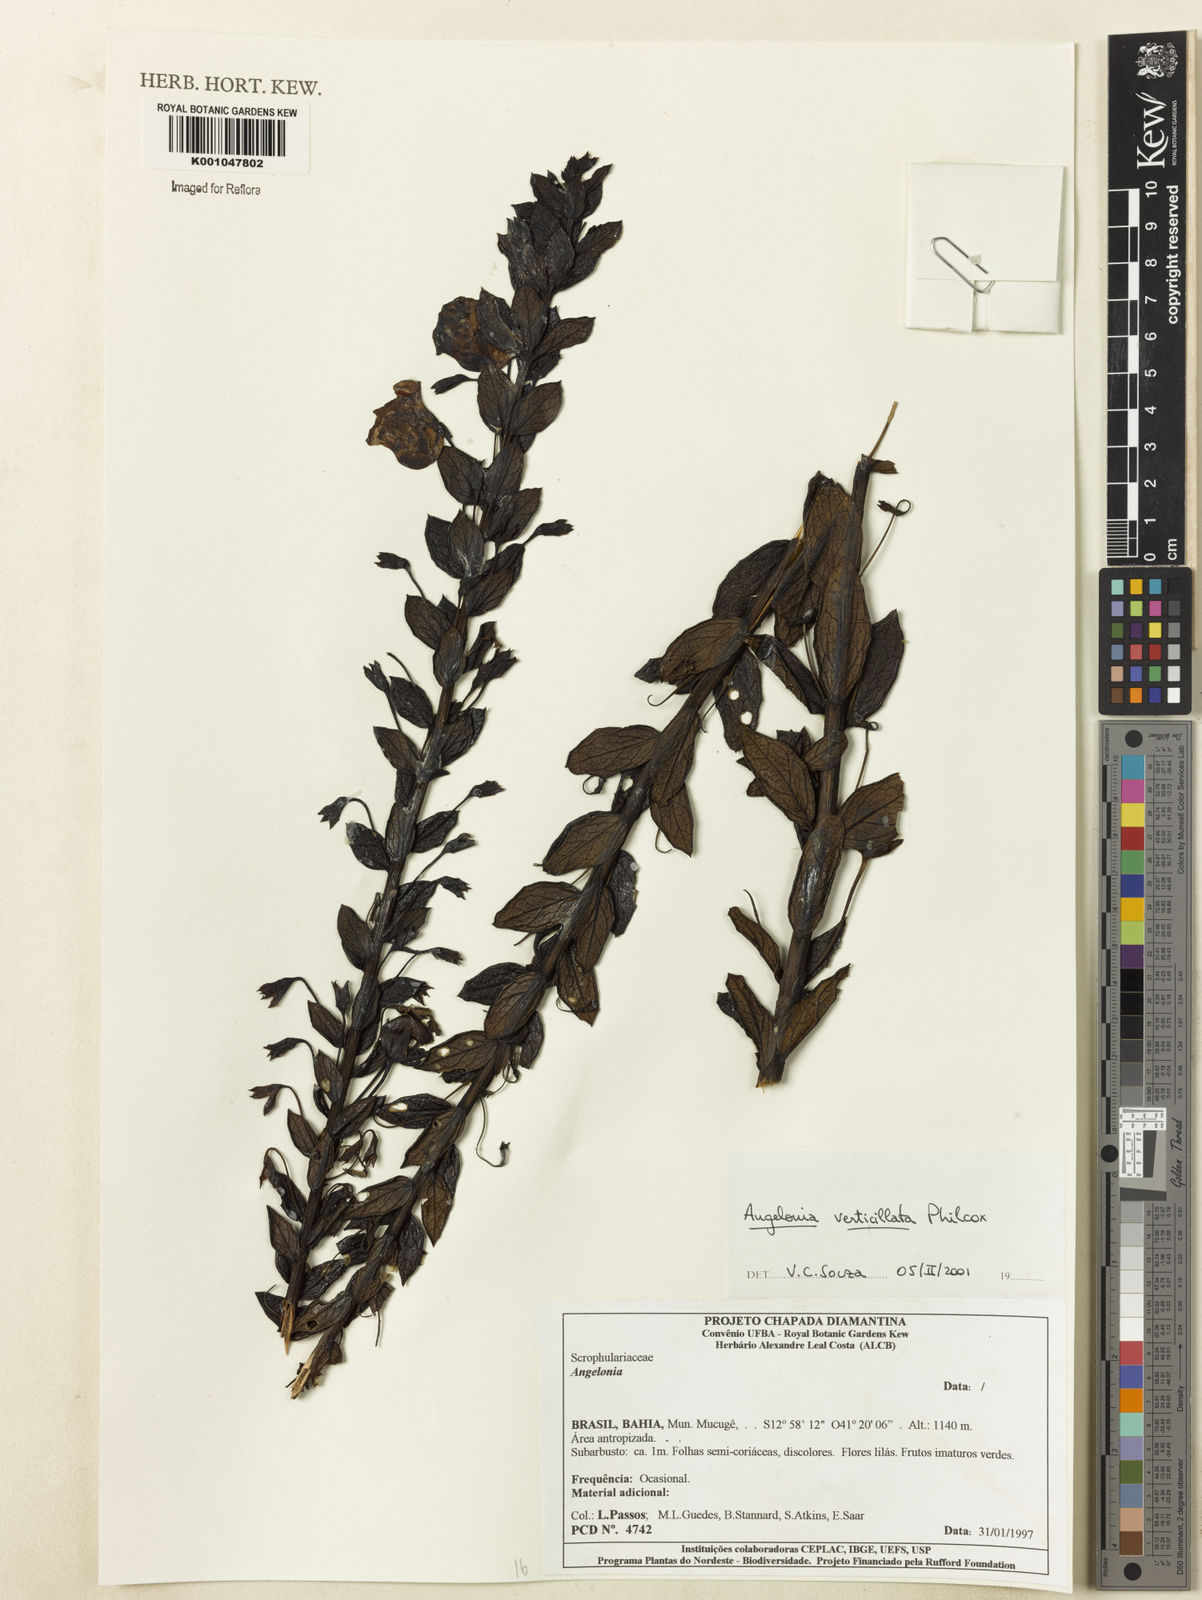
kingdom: Plantae
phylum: Tracheophyta
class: Magnoliopsida
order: Lamiales
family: Plantaginaceae
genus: Angelonia
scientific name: Angelonia verticillata
